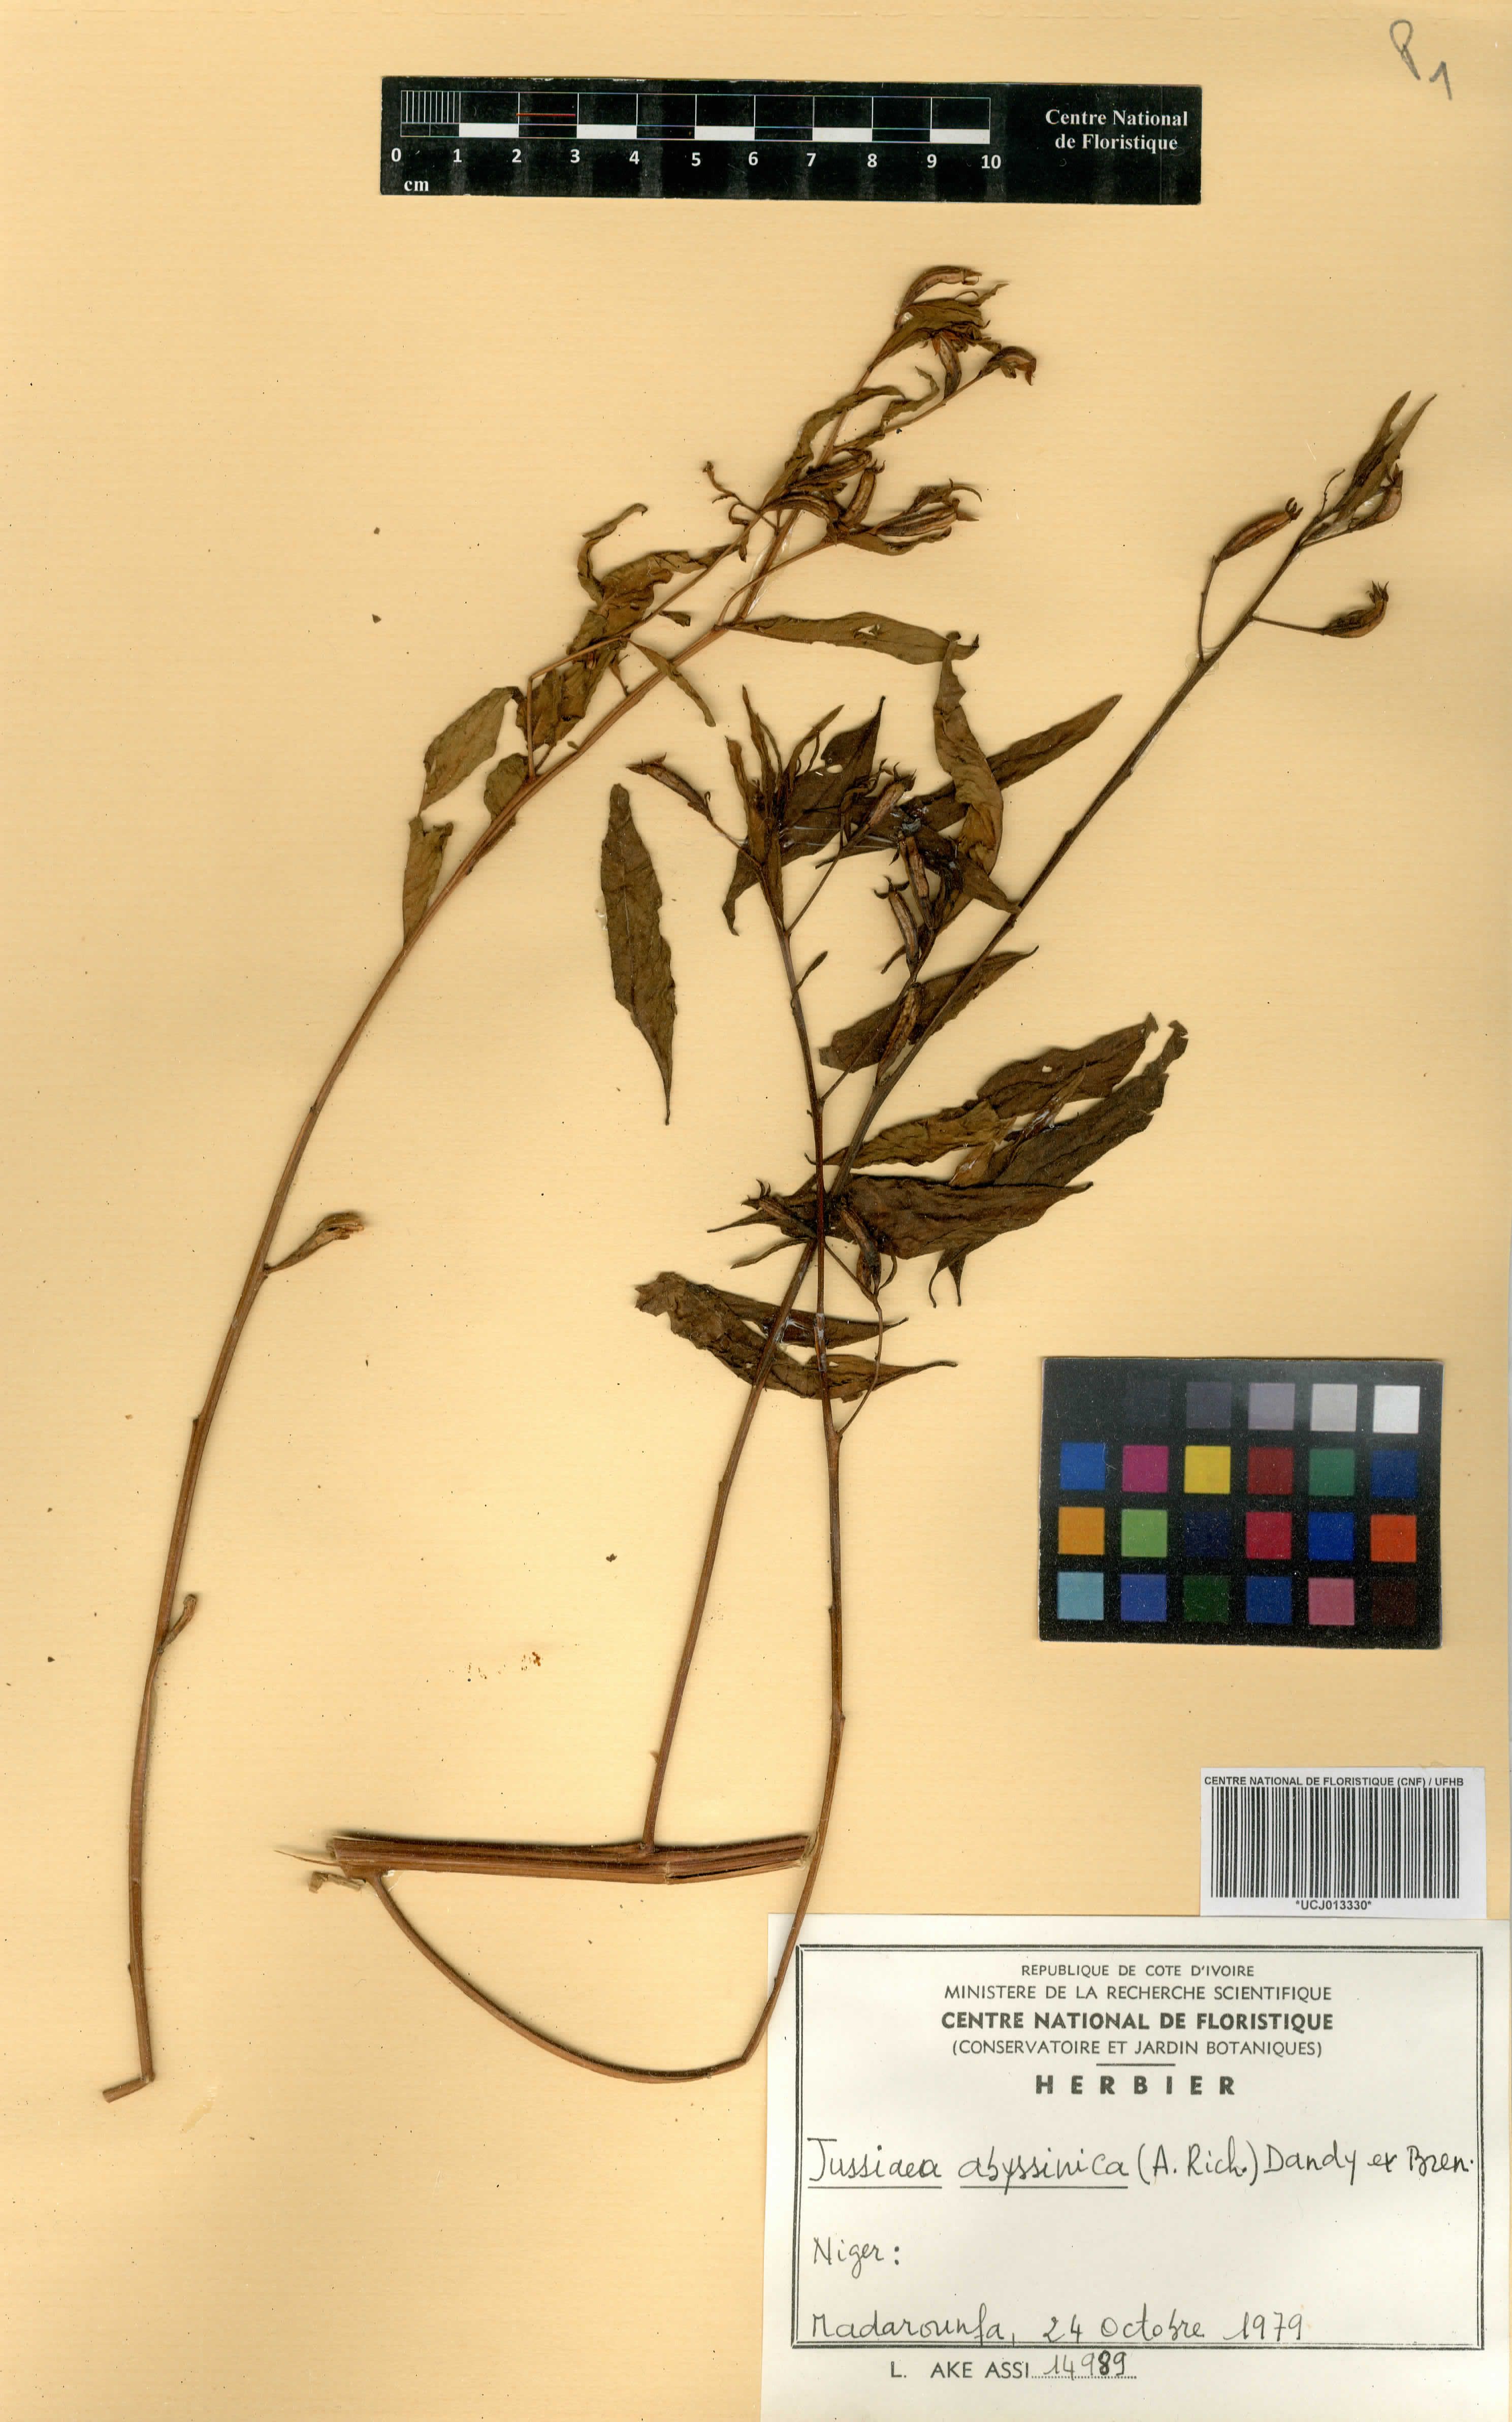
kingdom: Plantae
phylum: Tracheophyta
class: Magnoliopsida
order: Myrtales
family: Onagraceae
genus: Ludwigia
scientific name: Ludwigia abyssinica
